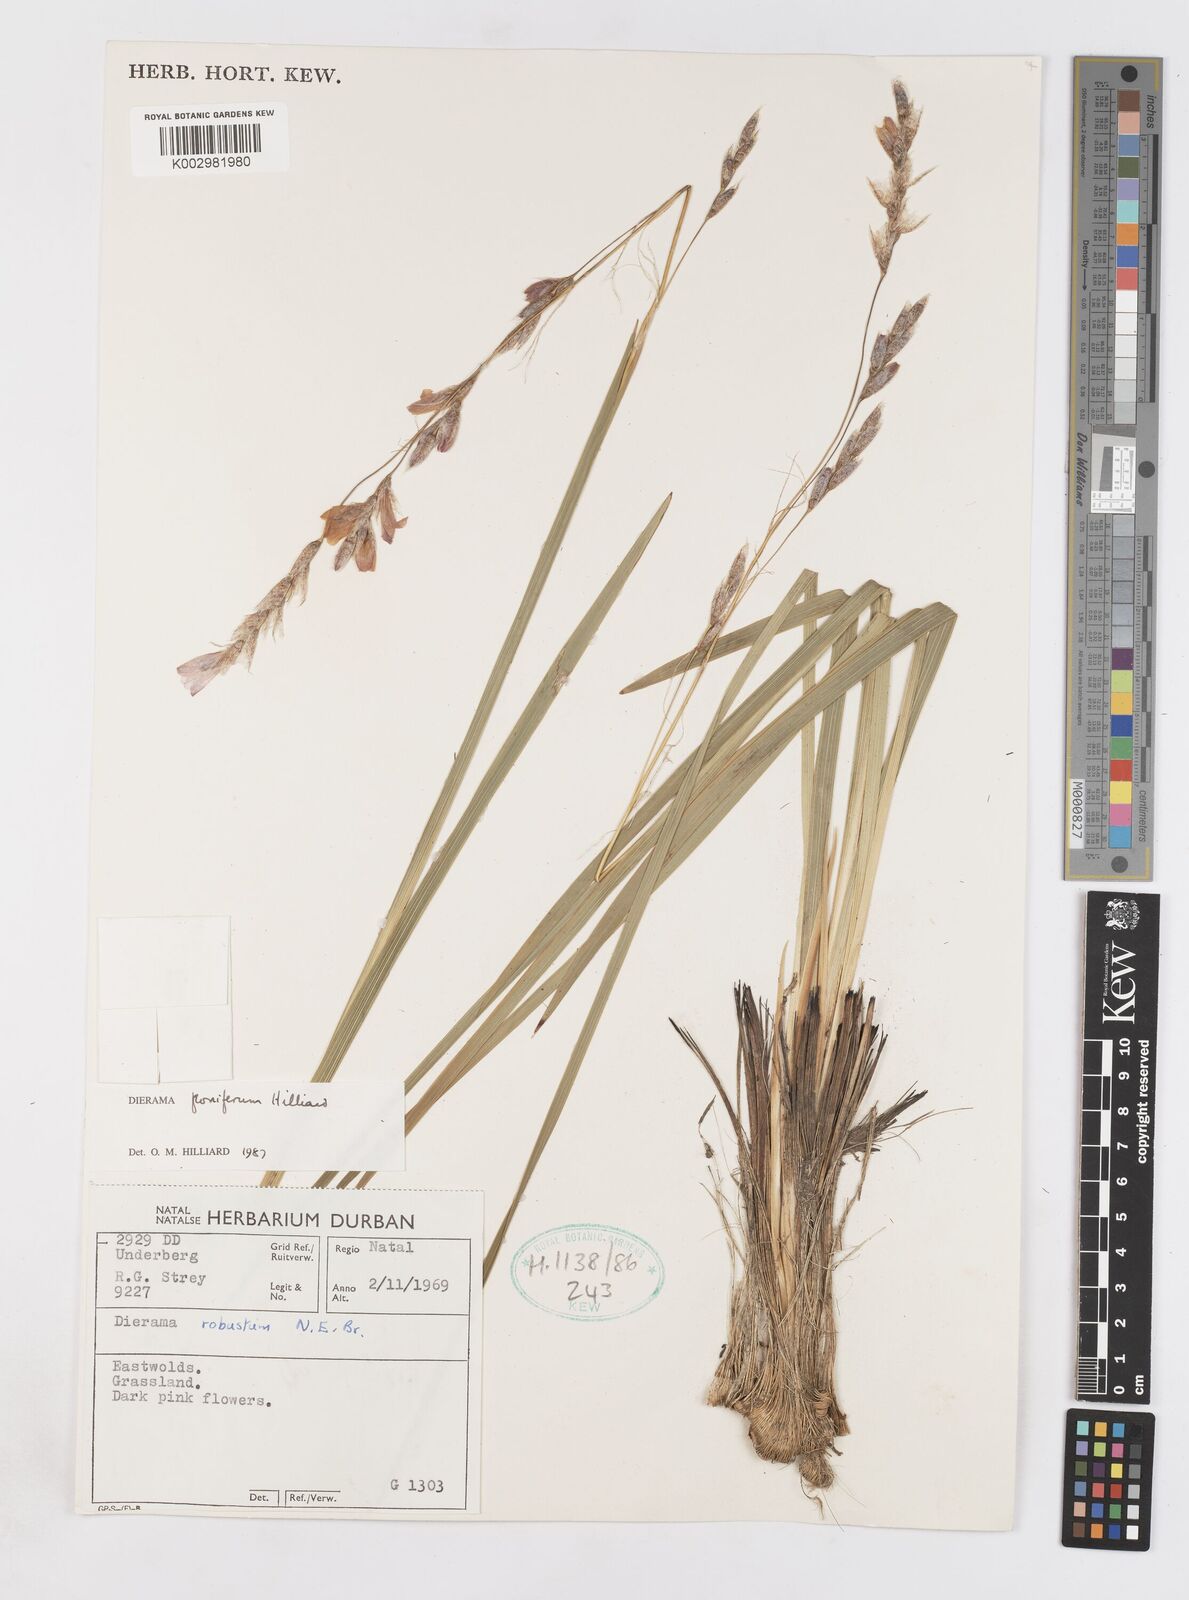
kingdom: Plantae
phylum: Tracheophyta
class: Liliopsida
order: Asparagales
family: Iridaceae
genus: Dierama
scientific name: Dierama floriferum
